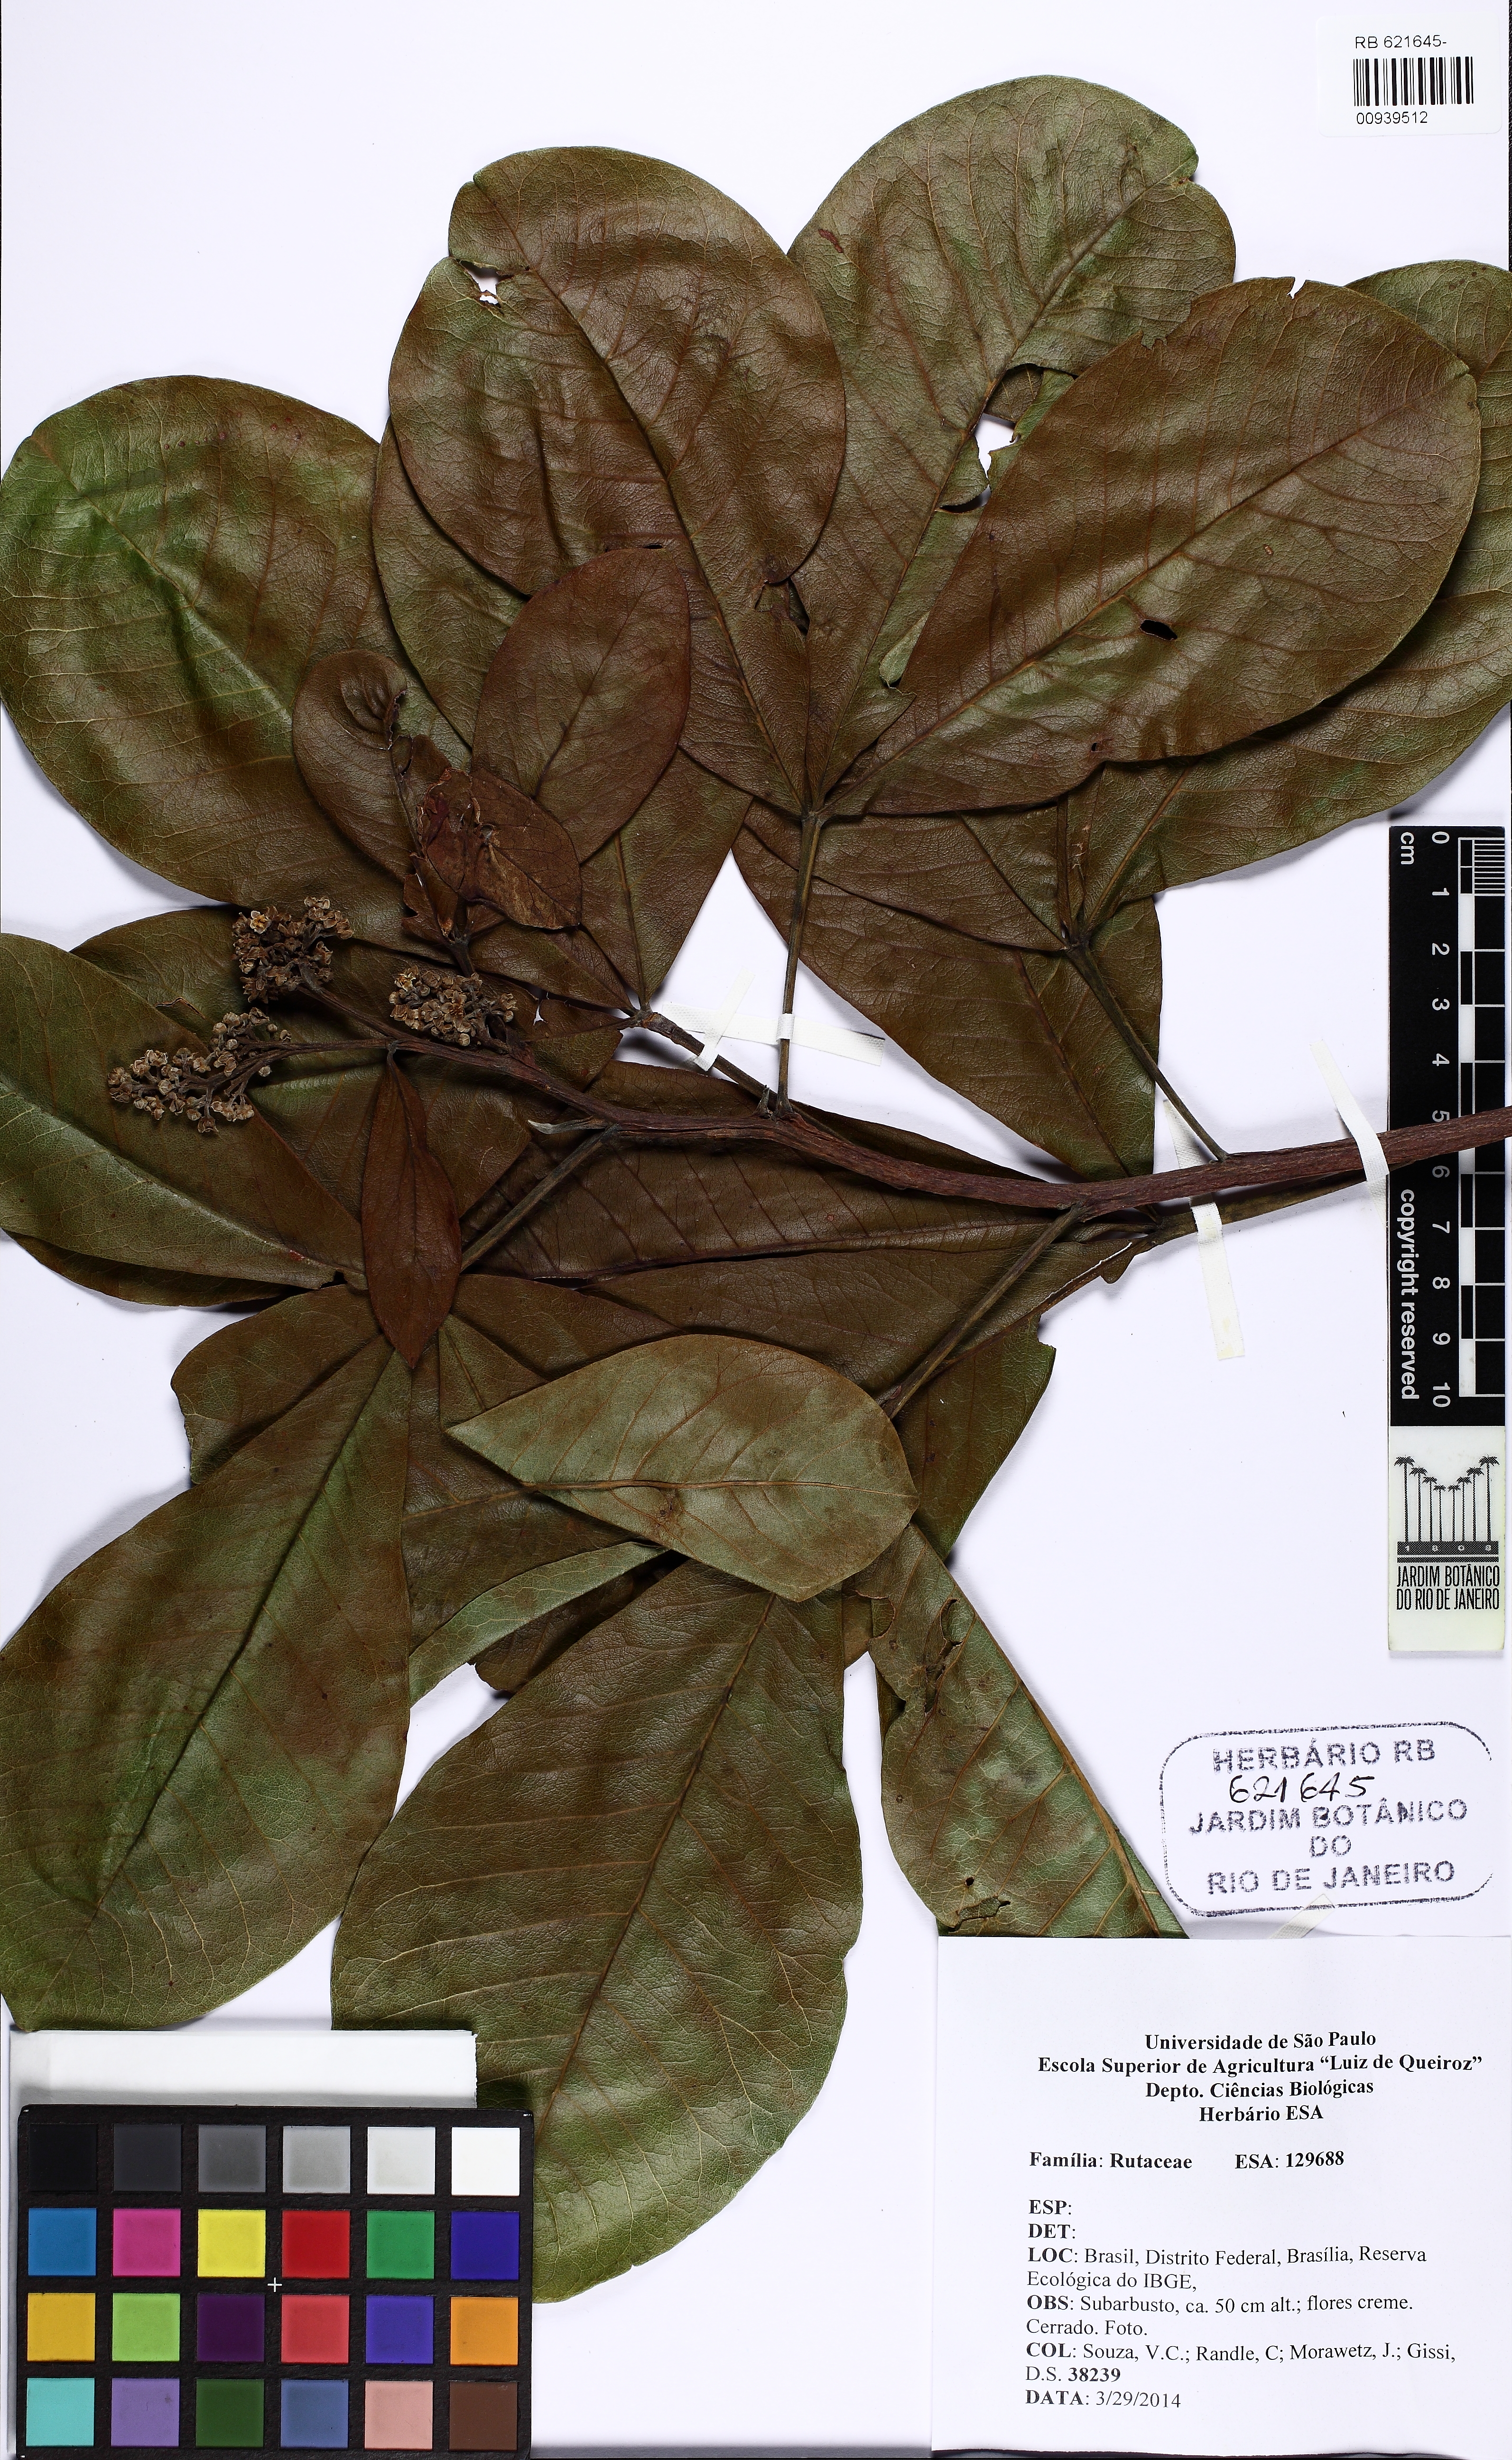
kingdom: Plantae
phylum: Tracheophyta
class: Magnoliopsida
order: Sapindales
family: Rutaceae
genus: Esenbeckia
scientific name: Esenbeckia pumila
